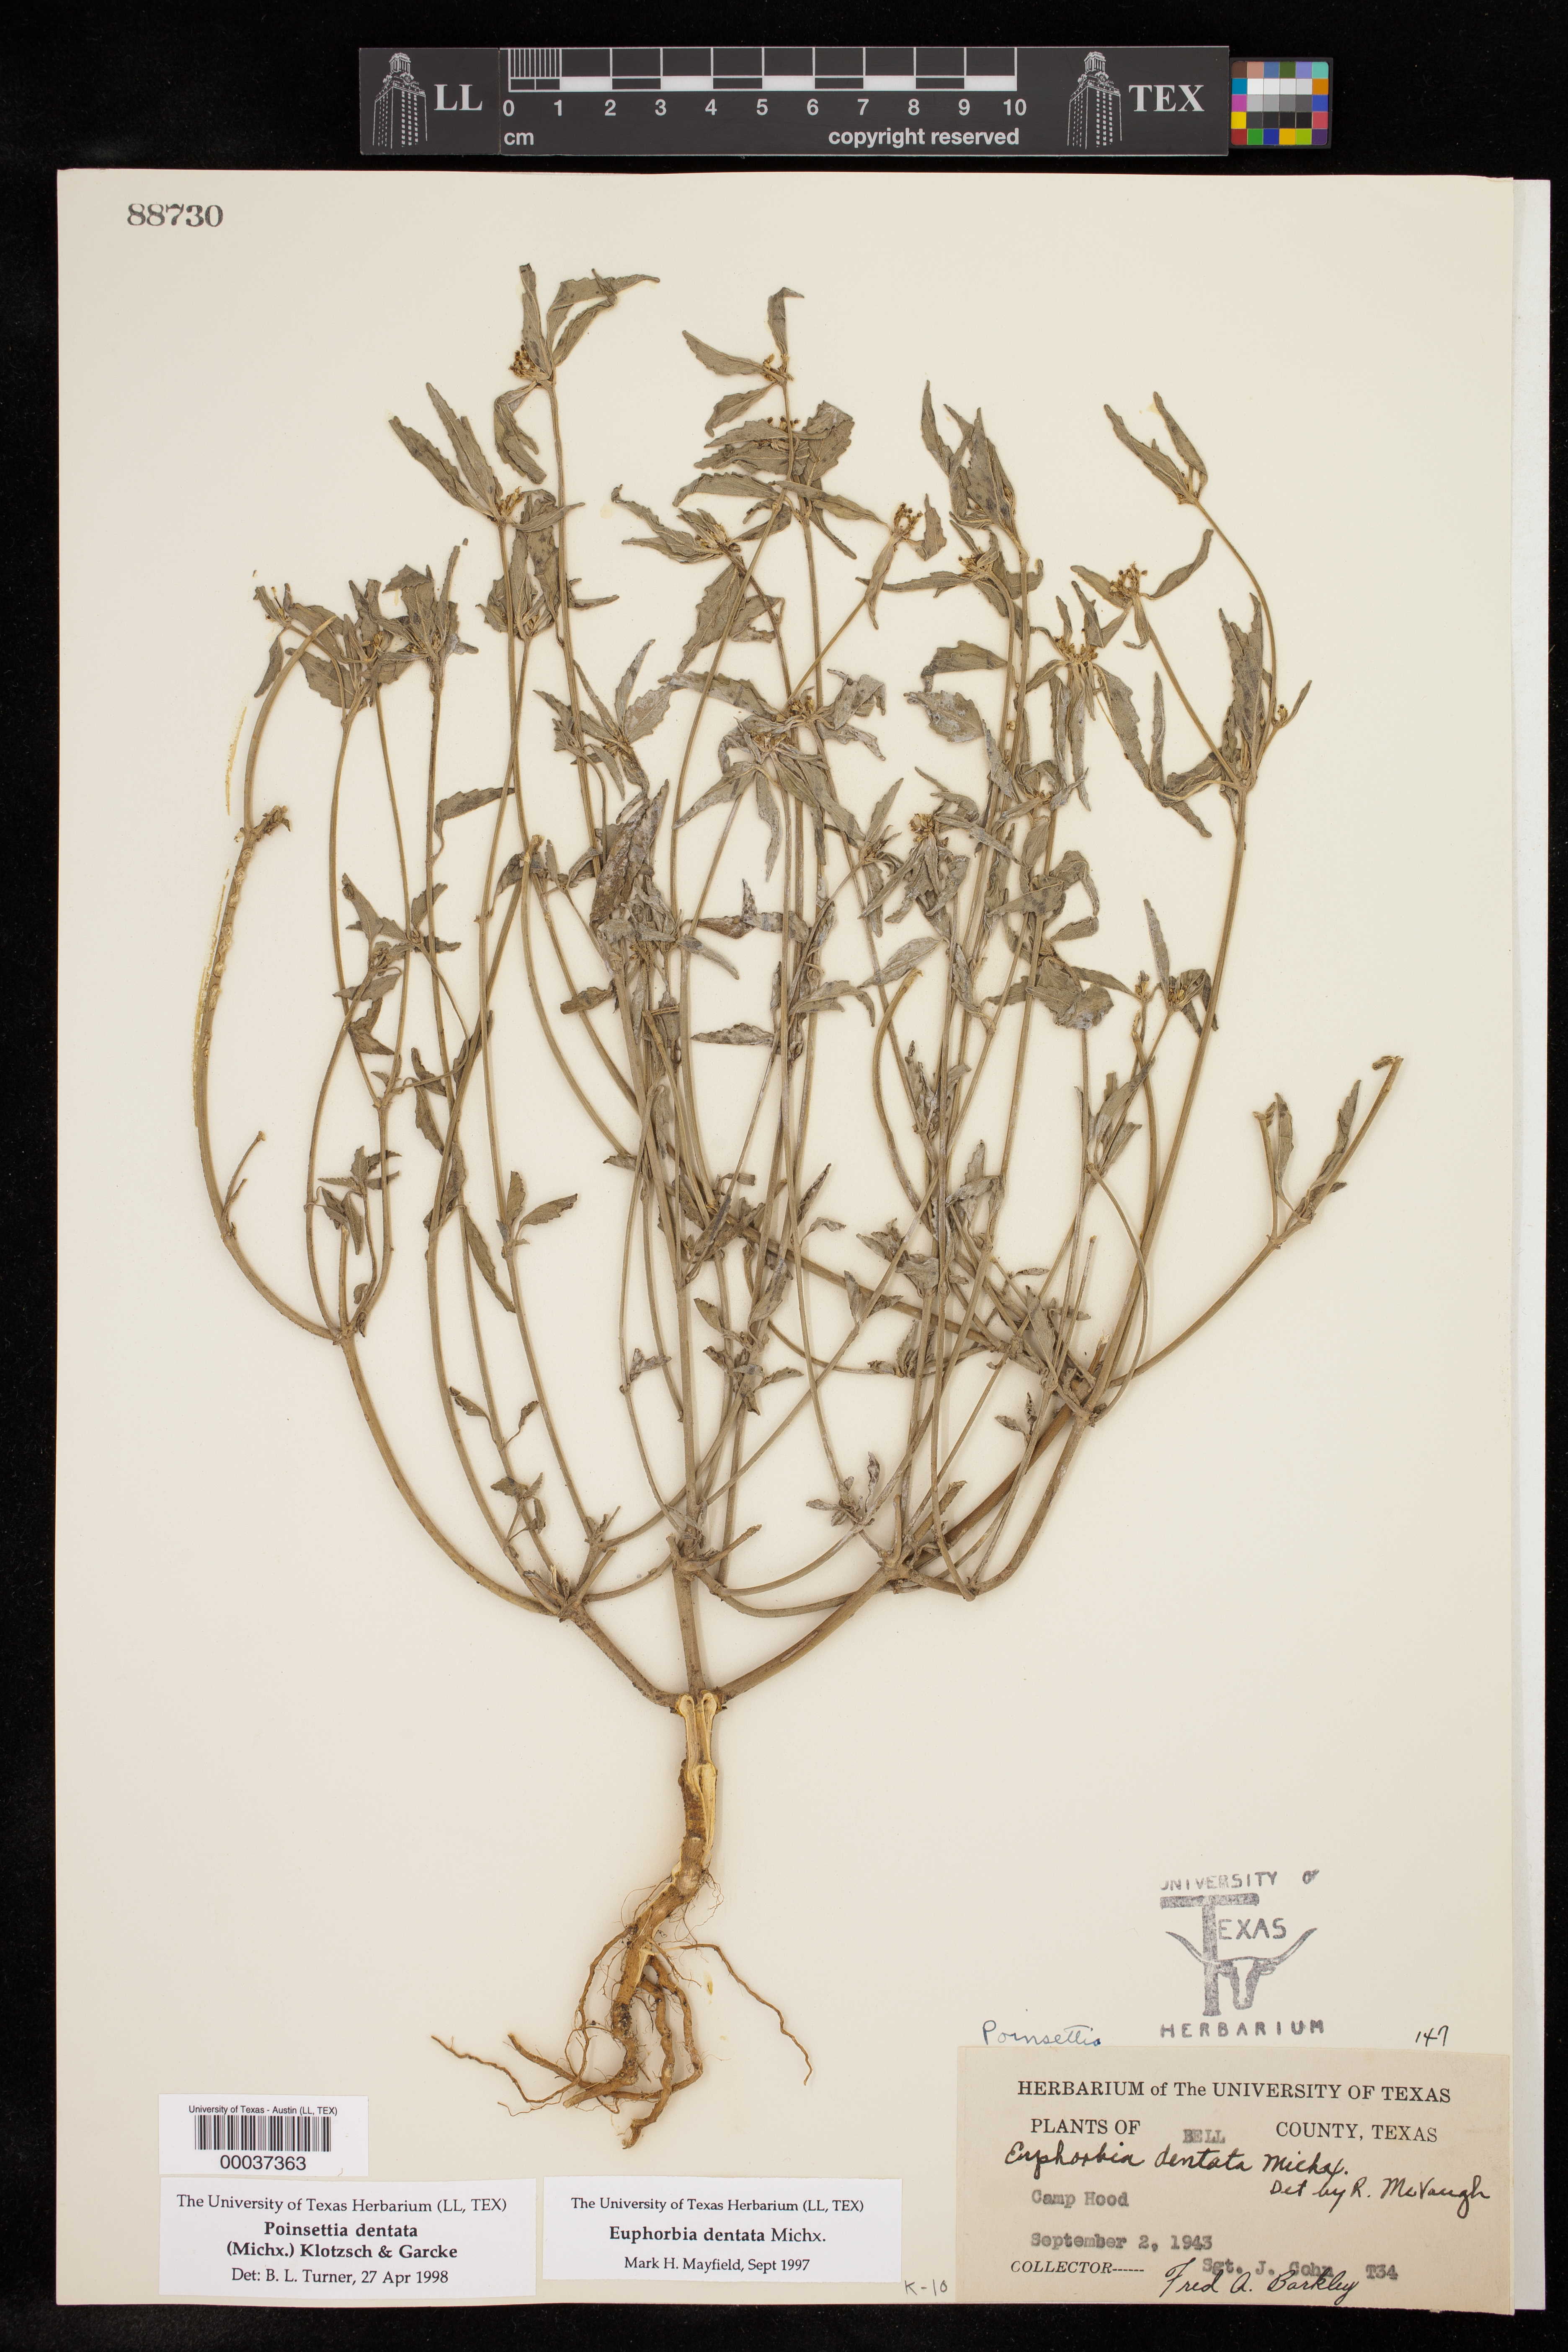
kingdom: Plantae
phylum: Tracheophyta
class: Magnoliopsida
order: Malpighiales
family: Euphorbiaceae
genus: Euphorbia
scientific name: Euphorbia dentata
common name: Dentate spurge
